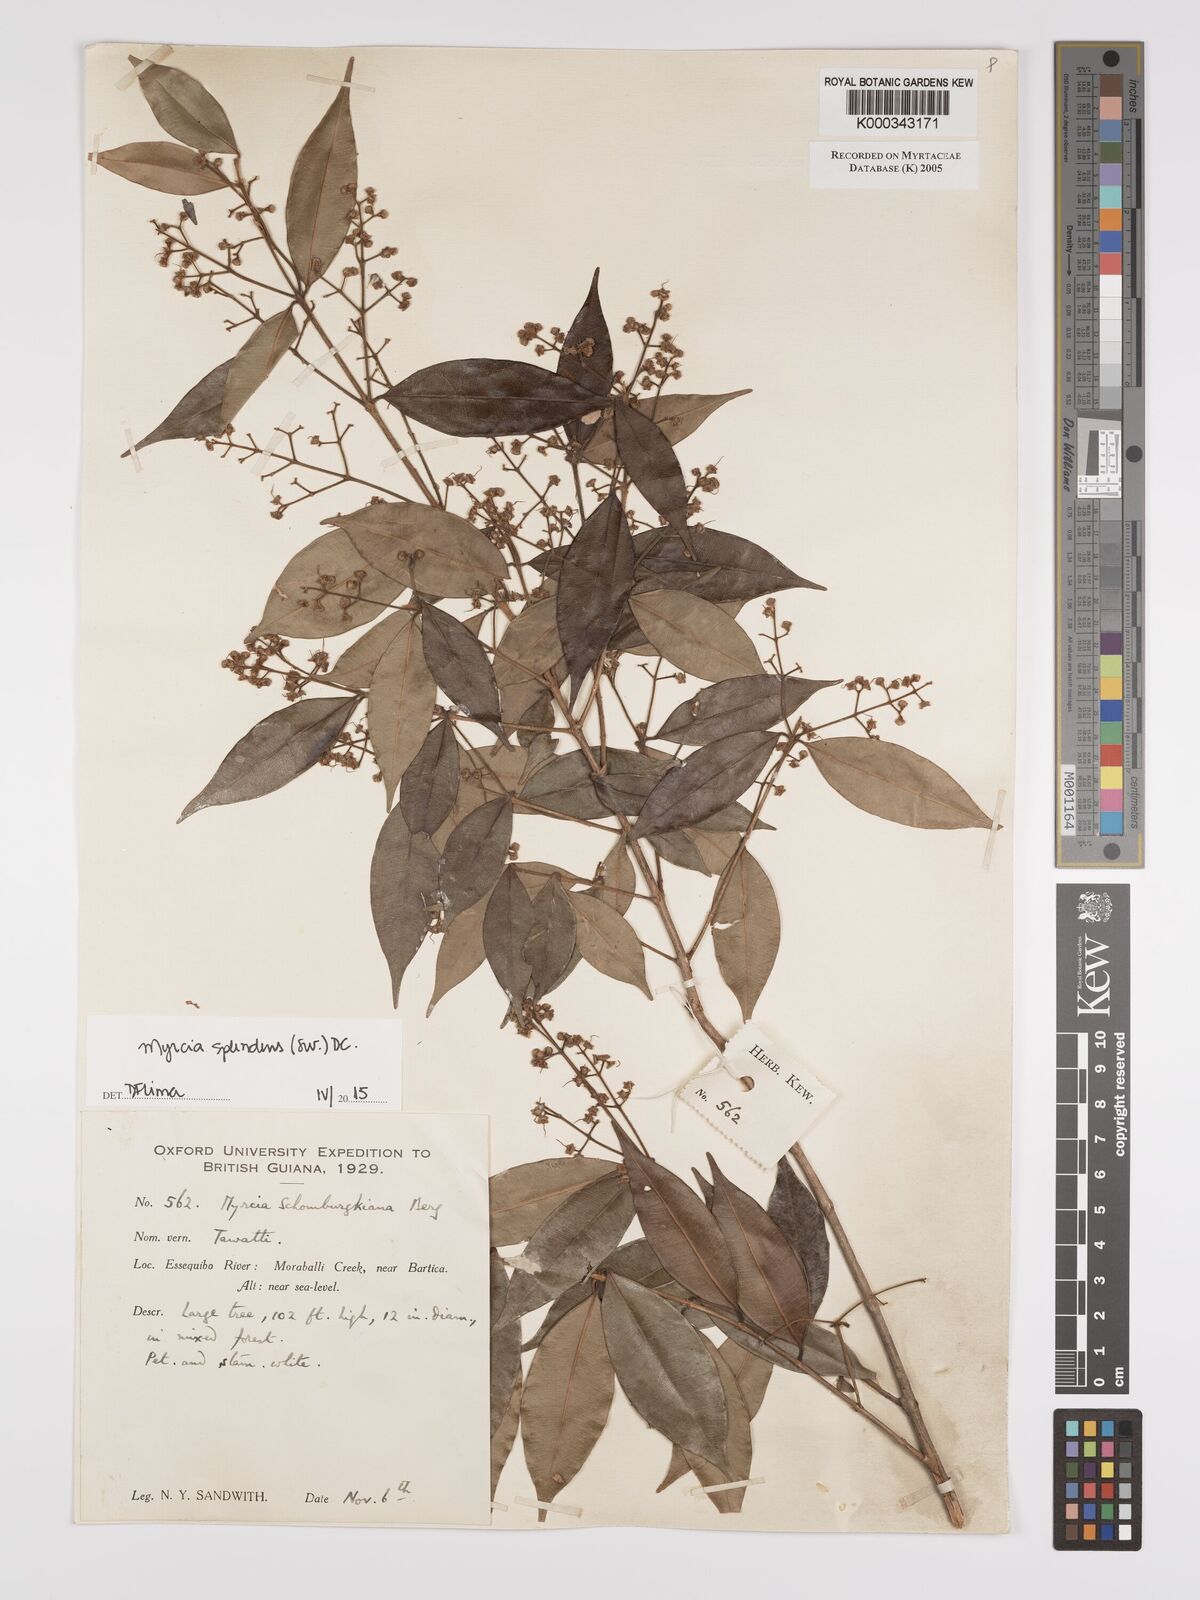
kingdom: Plantae
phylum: Tracheophyta
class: Magnoliopsida
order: Myrtales
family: Myrtaceae
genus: Myrcia
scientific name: Myrcia guianensis
